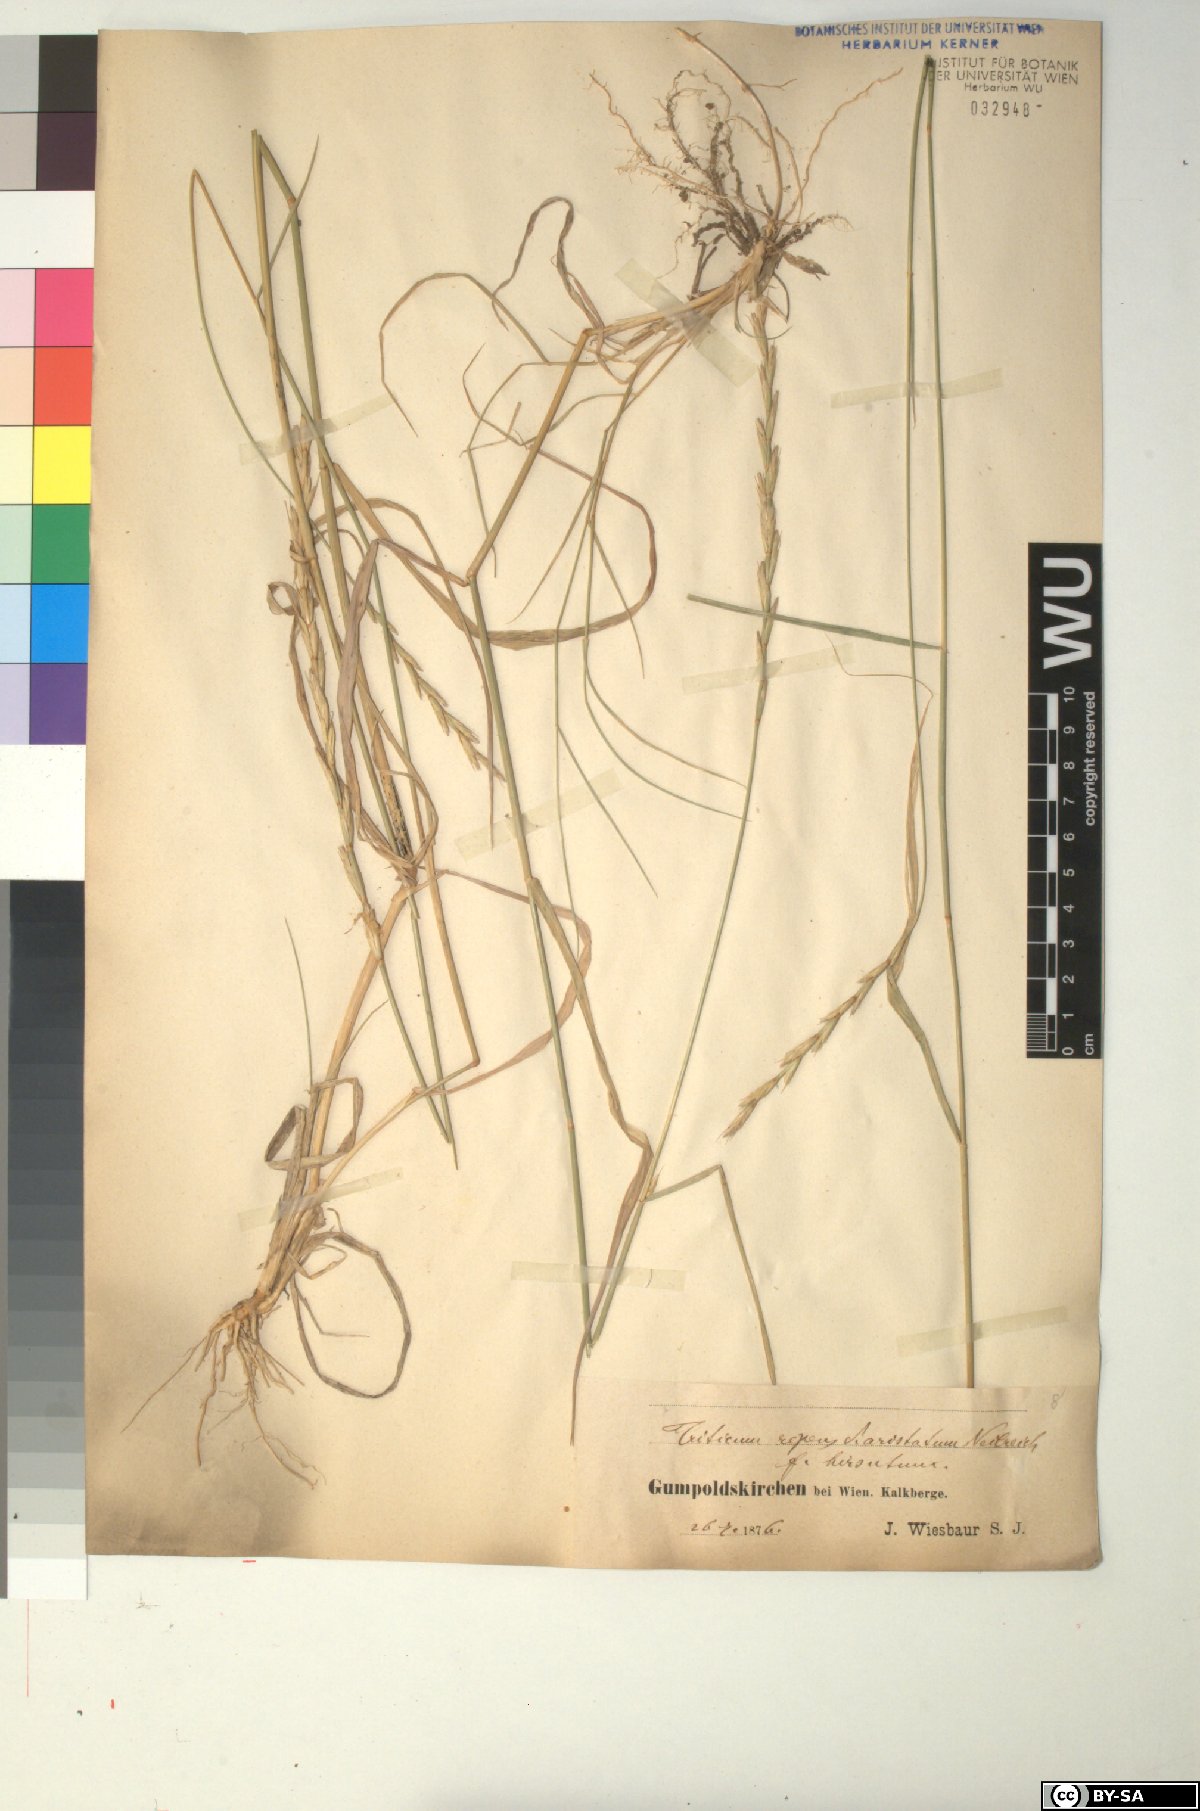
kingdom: Plantae
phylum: Tracheophyta
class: Liliopsida
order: Poales
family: Poaceae
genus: Elymus
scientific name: Elymus repens
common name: Quackgrass
